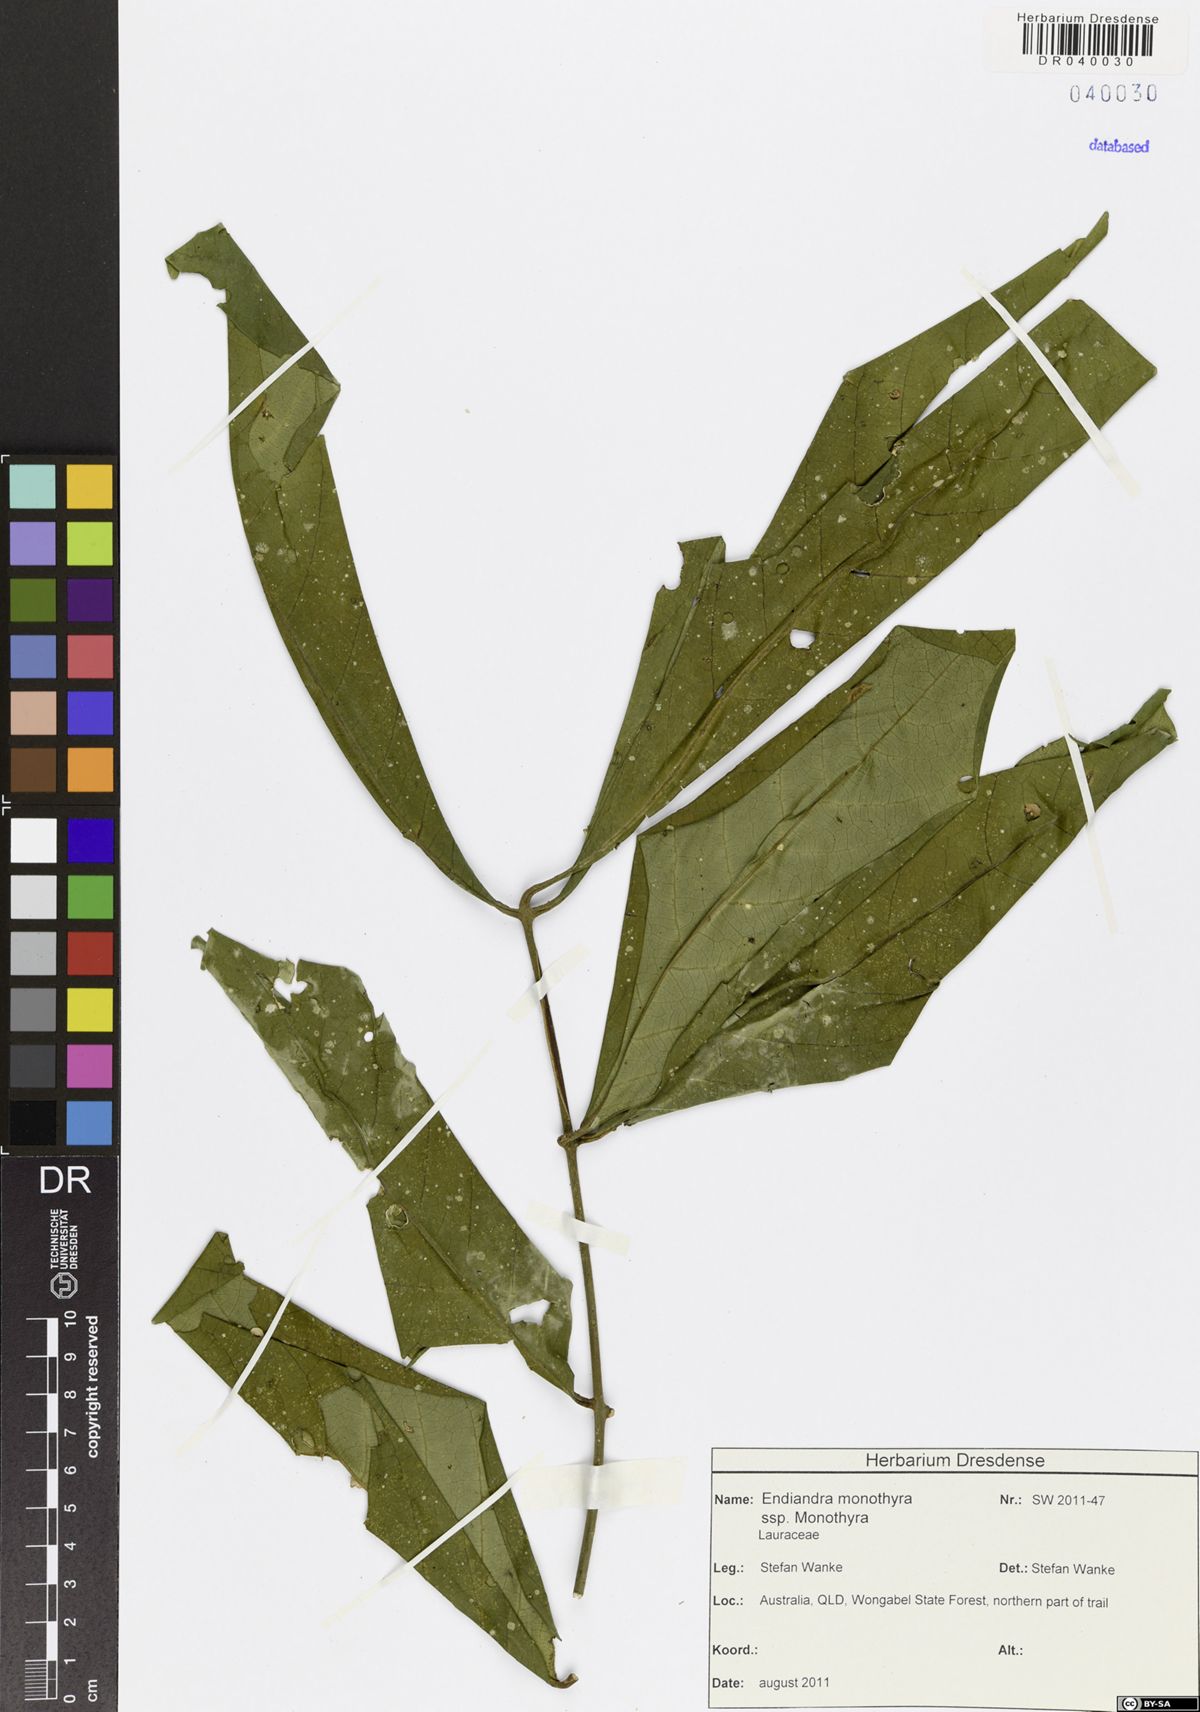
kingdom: Plantae
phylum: Tracheophyta
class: Magnoliopsida
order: Laurales
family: Lauraceae
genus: Endiandra
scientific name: Endiandra monothyra
